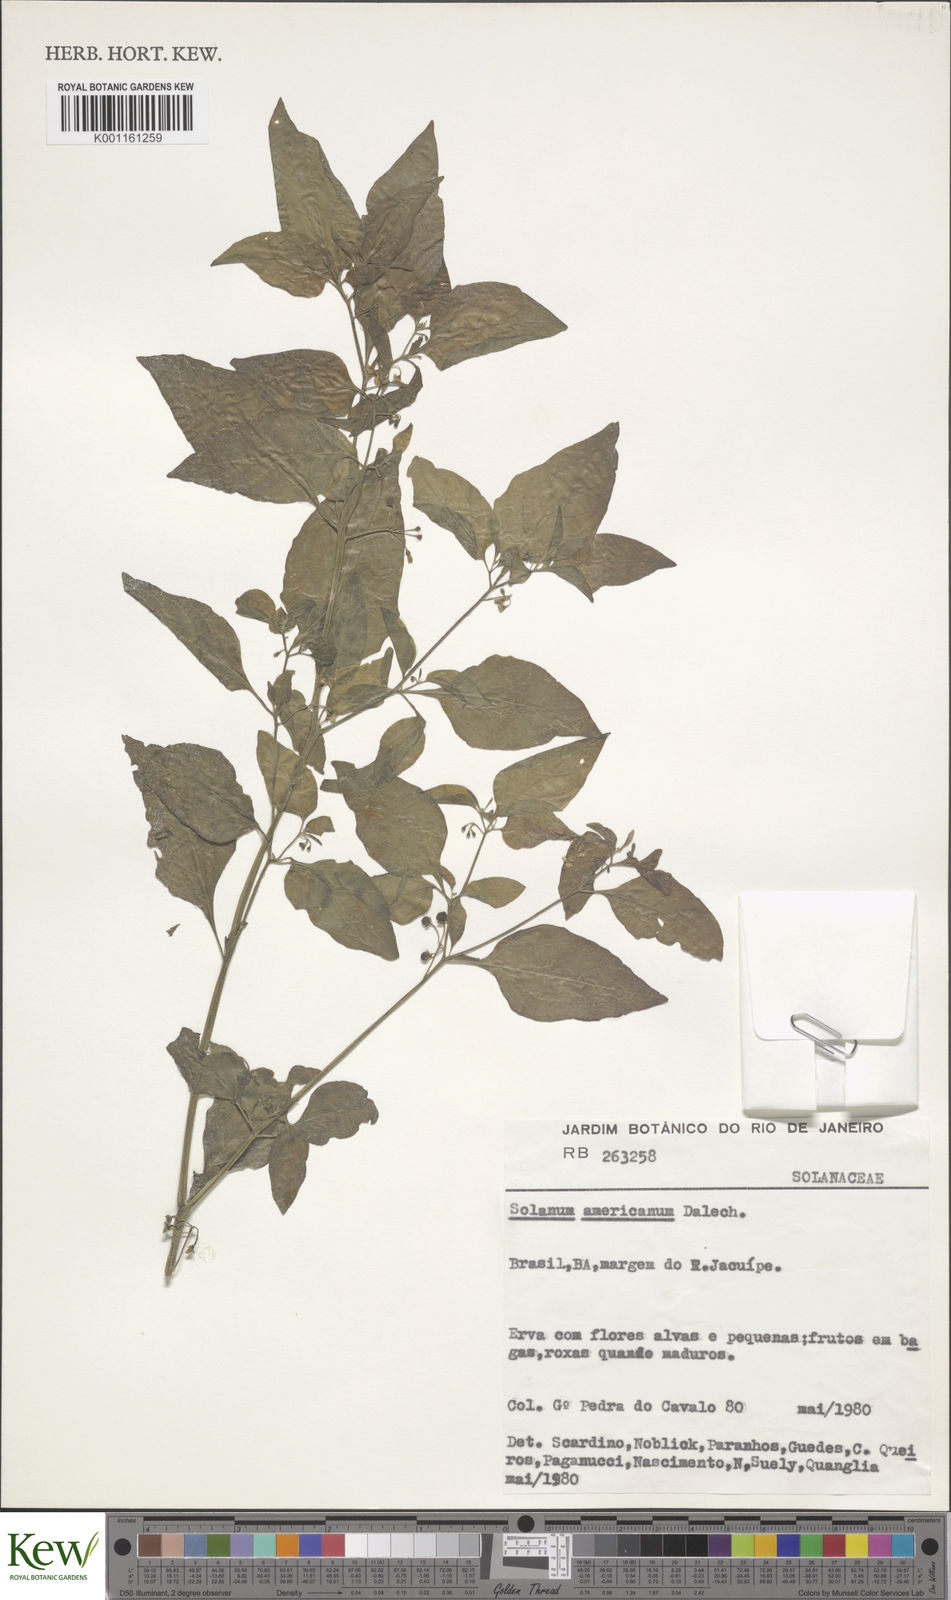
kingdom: Plantae
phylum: Tracheophyta
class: Magnoliopsida
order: Solanales
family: Solanaceae
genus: Solanum
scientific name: Solanum americanum
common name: American black nightshade
